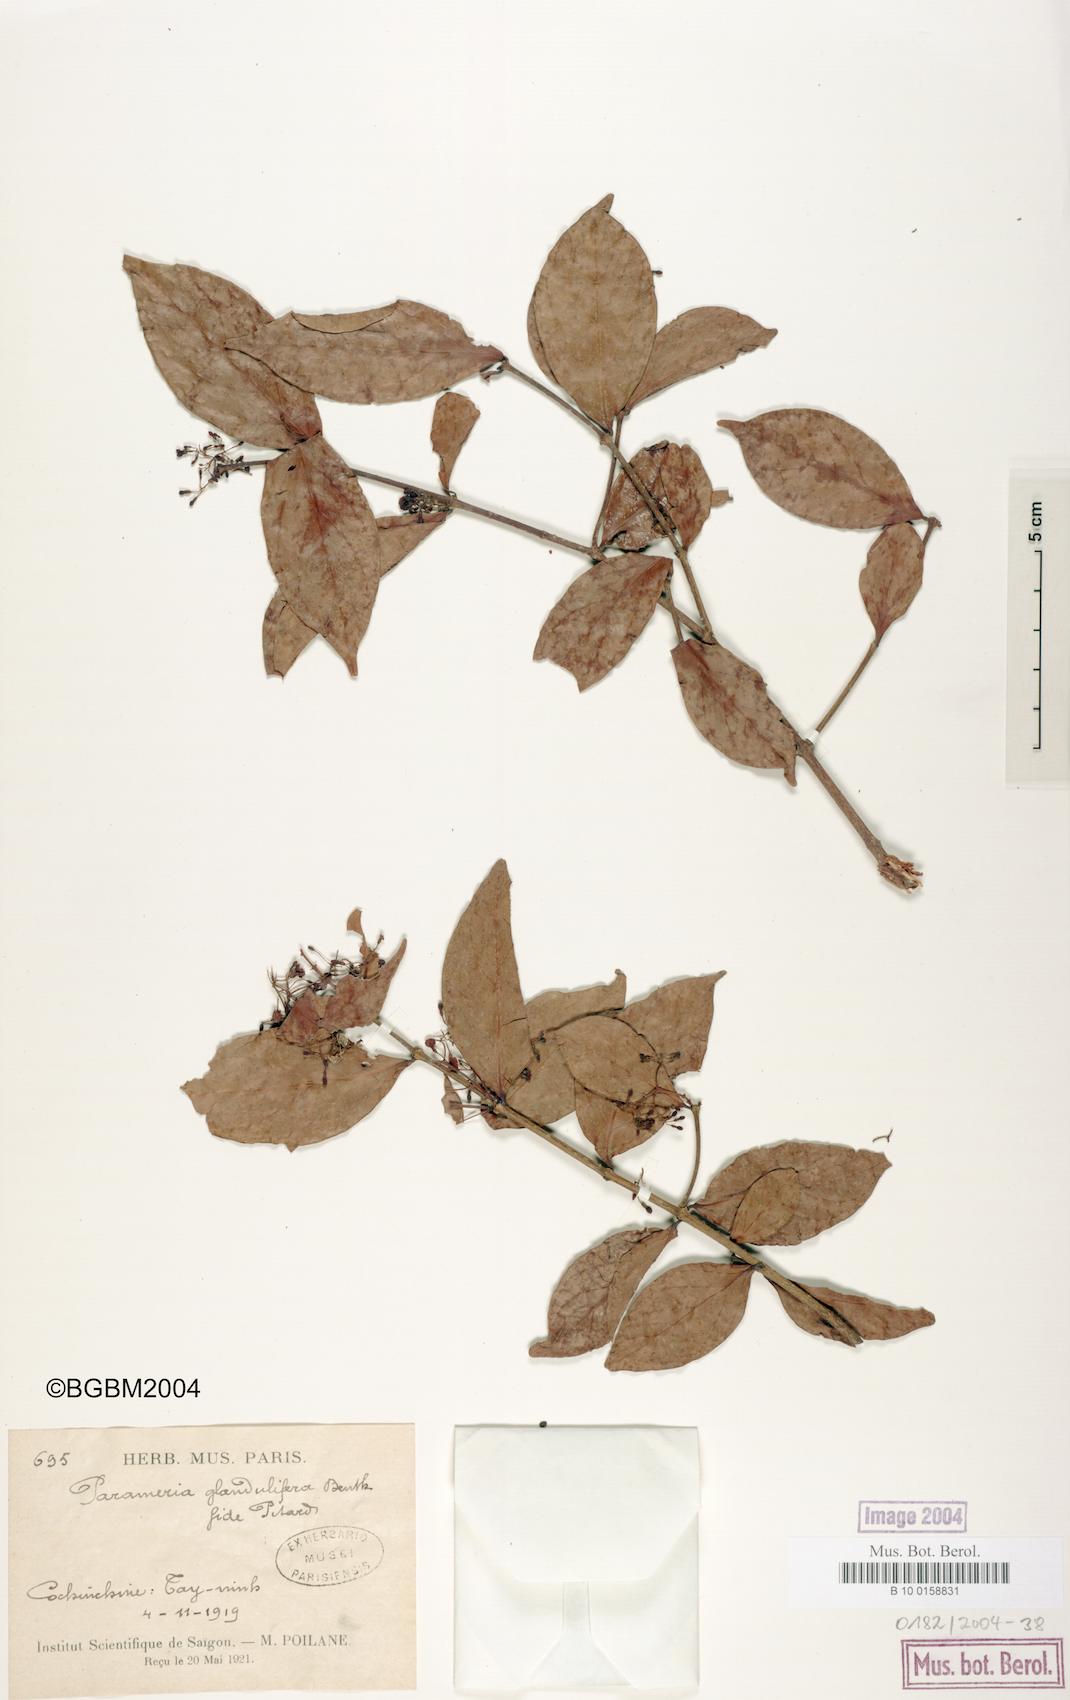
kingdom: Plantae
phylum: Tracheophyta
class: Magnoliopsida
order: Gentianales
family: Apocynaceae
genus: Urceola
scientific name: Urceola laevigata
